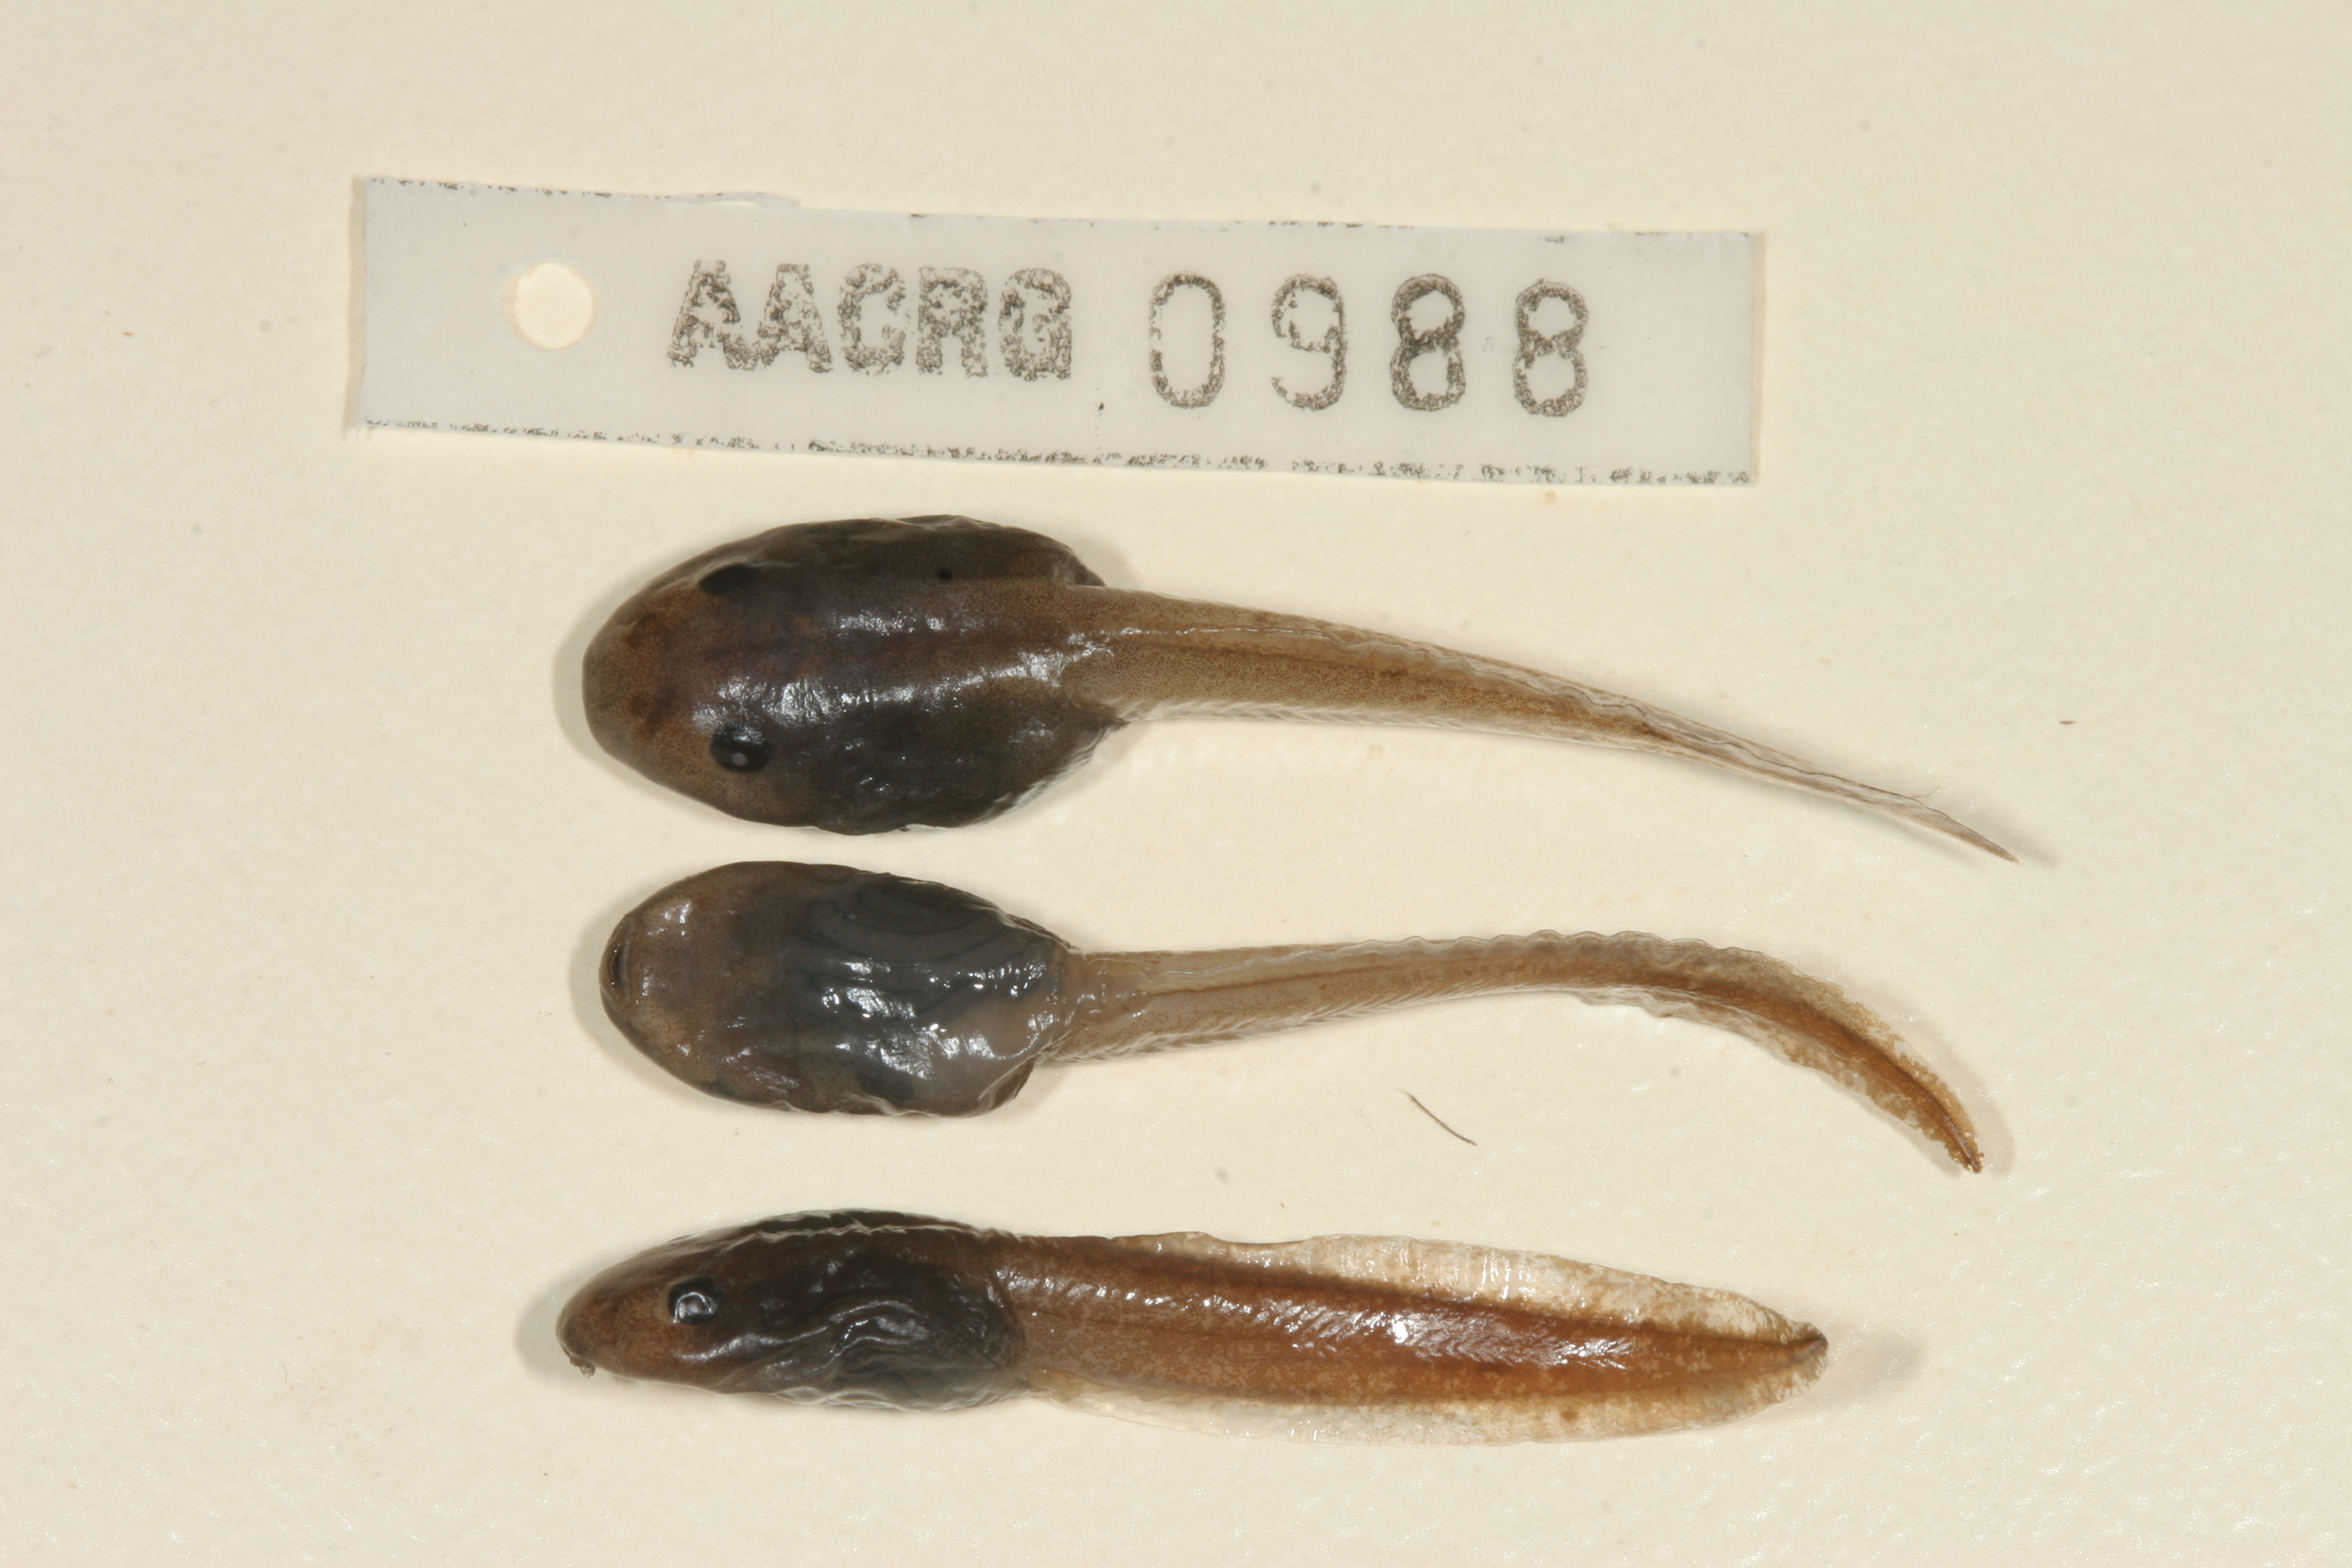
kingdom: Animalia
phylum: Chordata
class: Amphibia
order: Anura
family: Arthroleptidae
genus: Leptopelis
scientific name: Leptopelis mossambicus
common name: Mozambique tree frog
